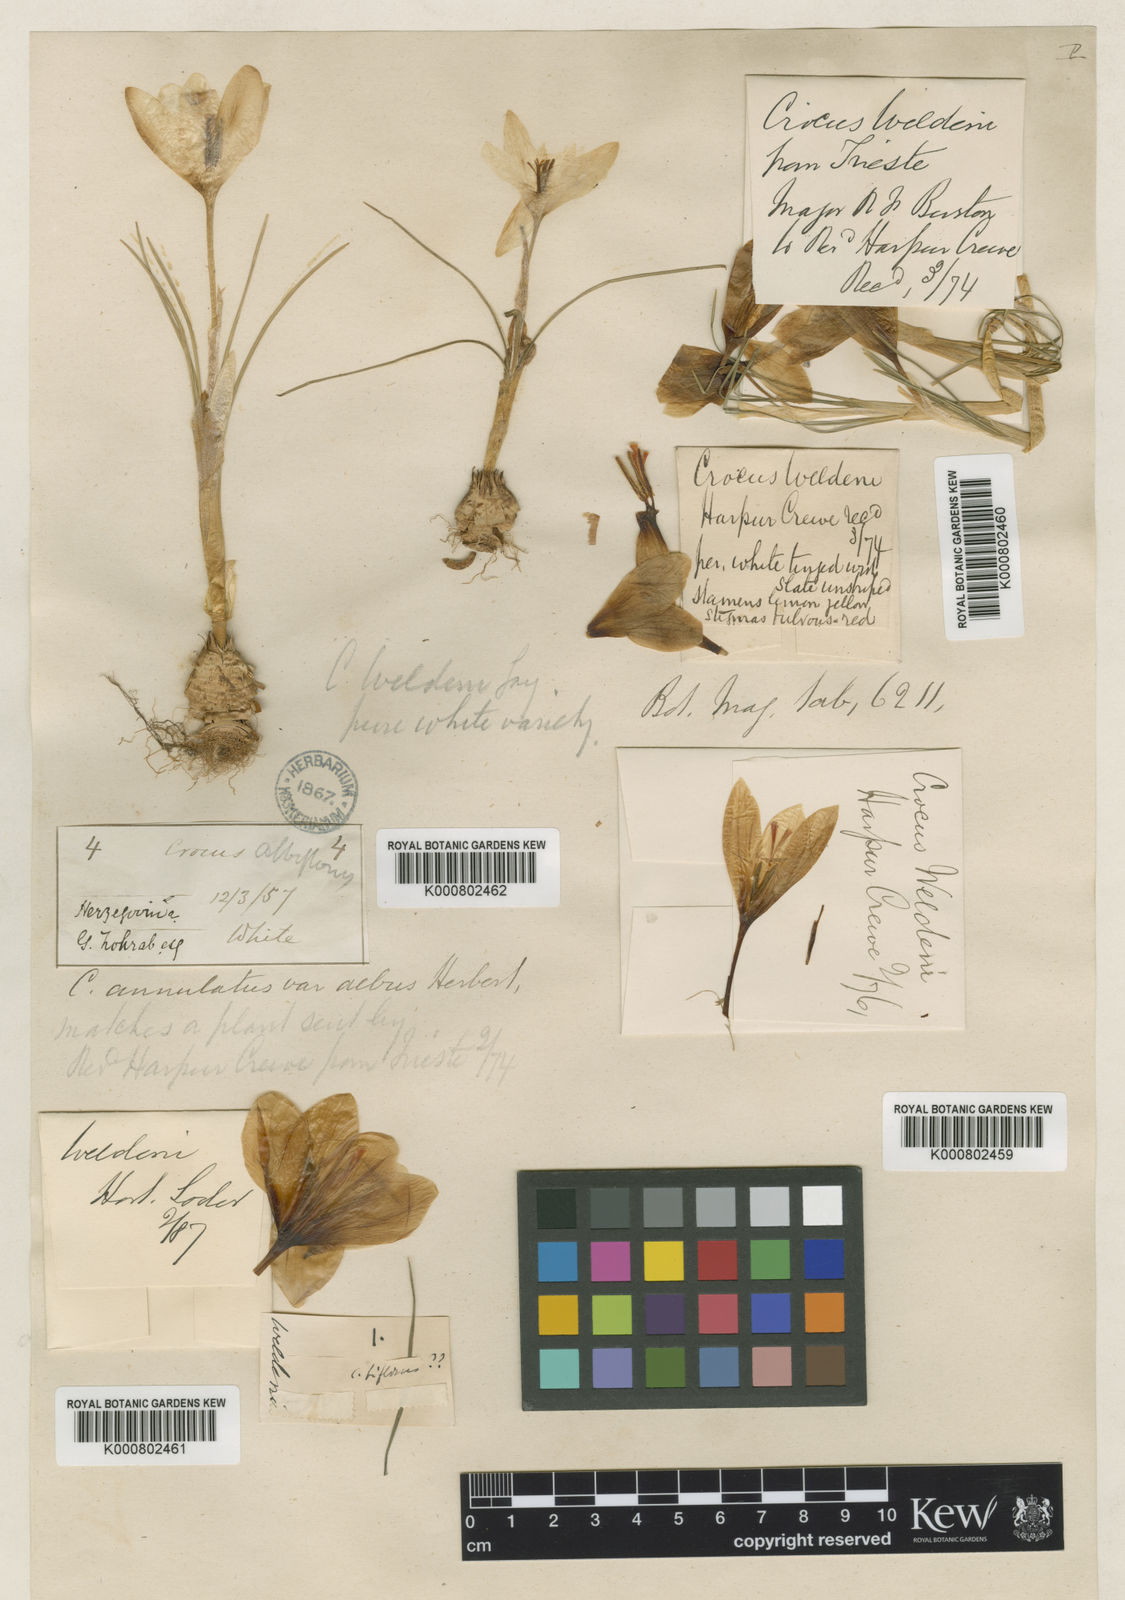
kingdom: Plantae
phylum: Tracheophyta
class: Liliopsida
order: Asparagales
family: Iridaceae
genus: Crocus
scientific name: Crocus biflorus
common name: Silvery crocus
